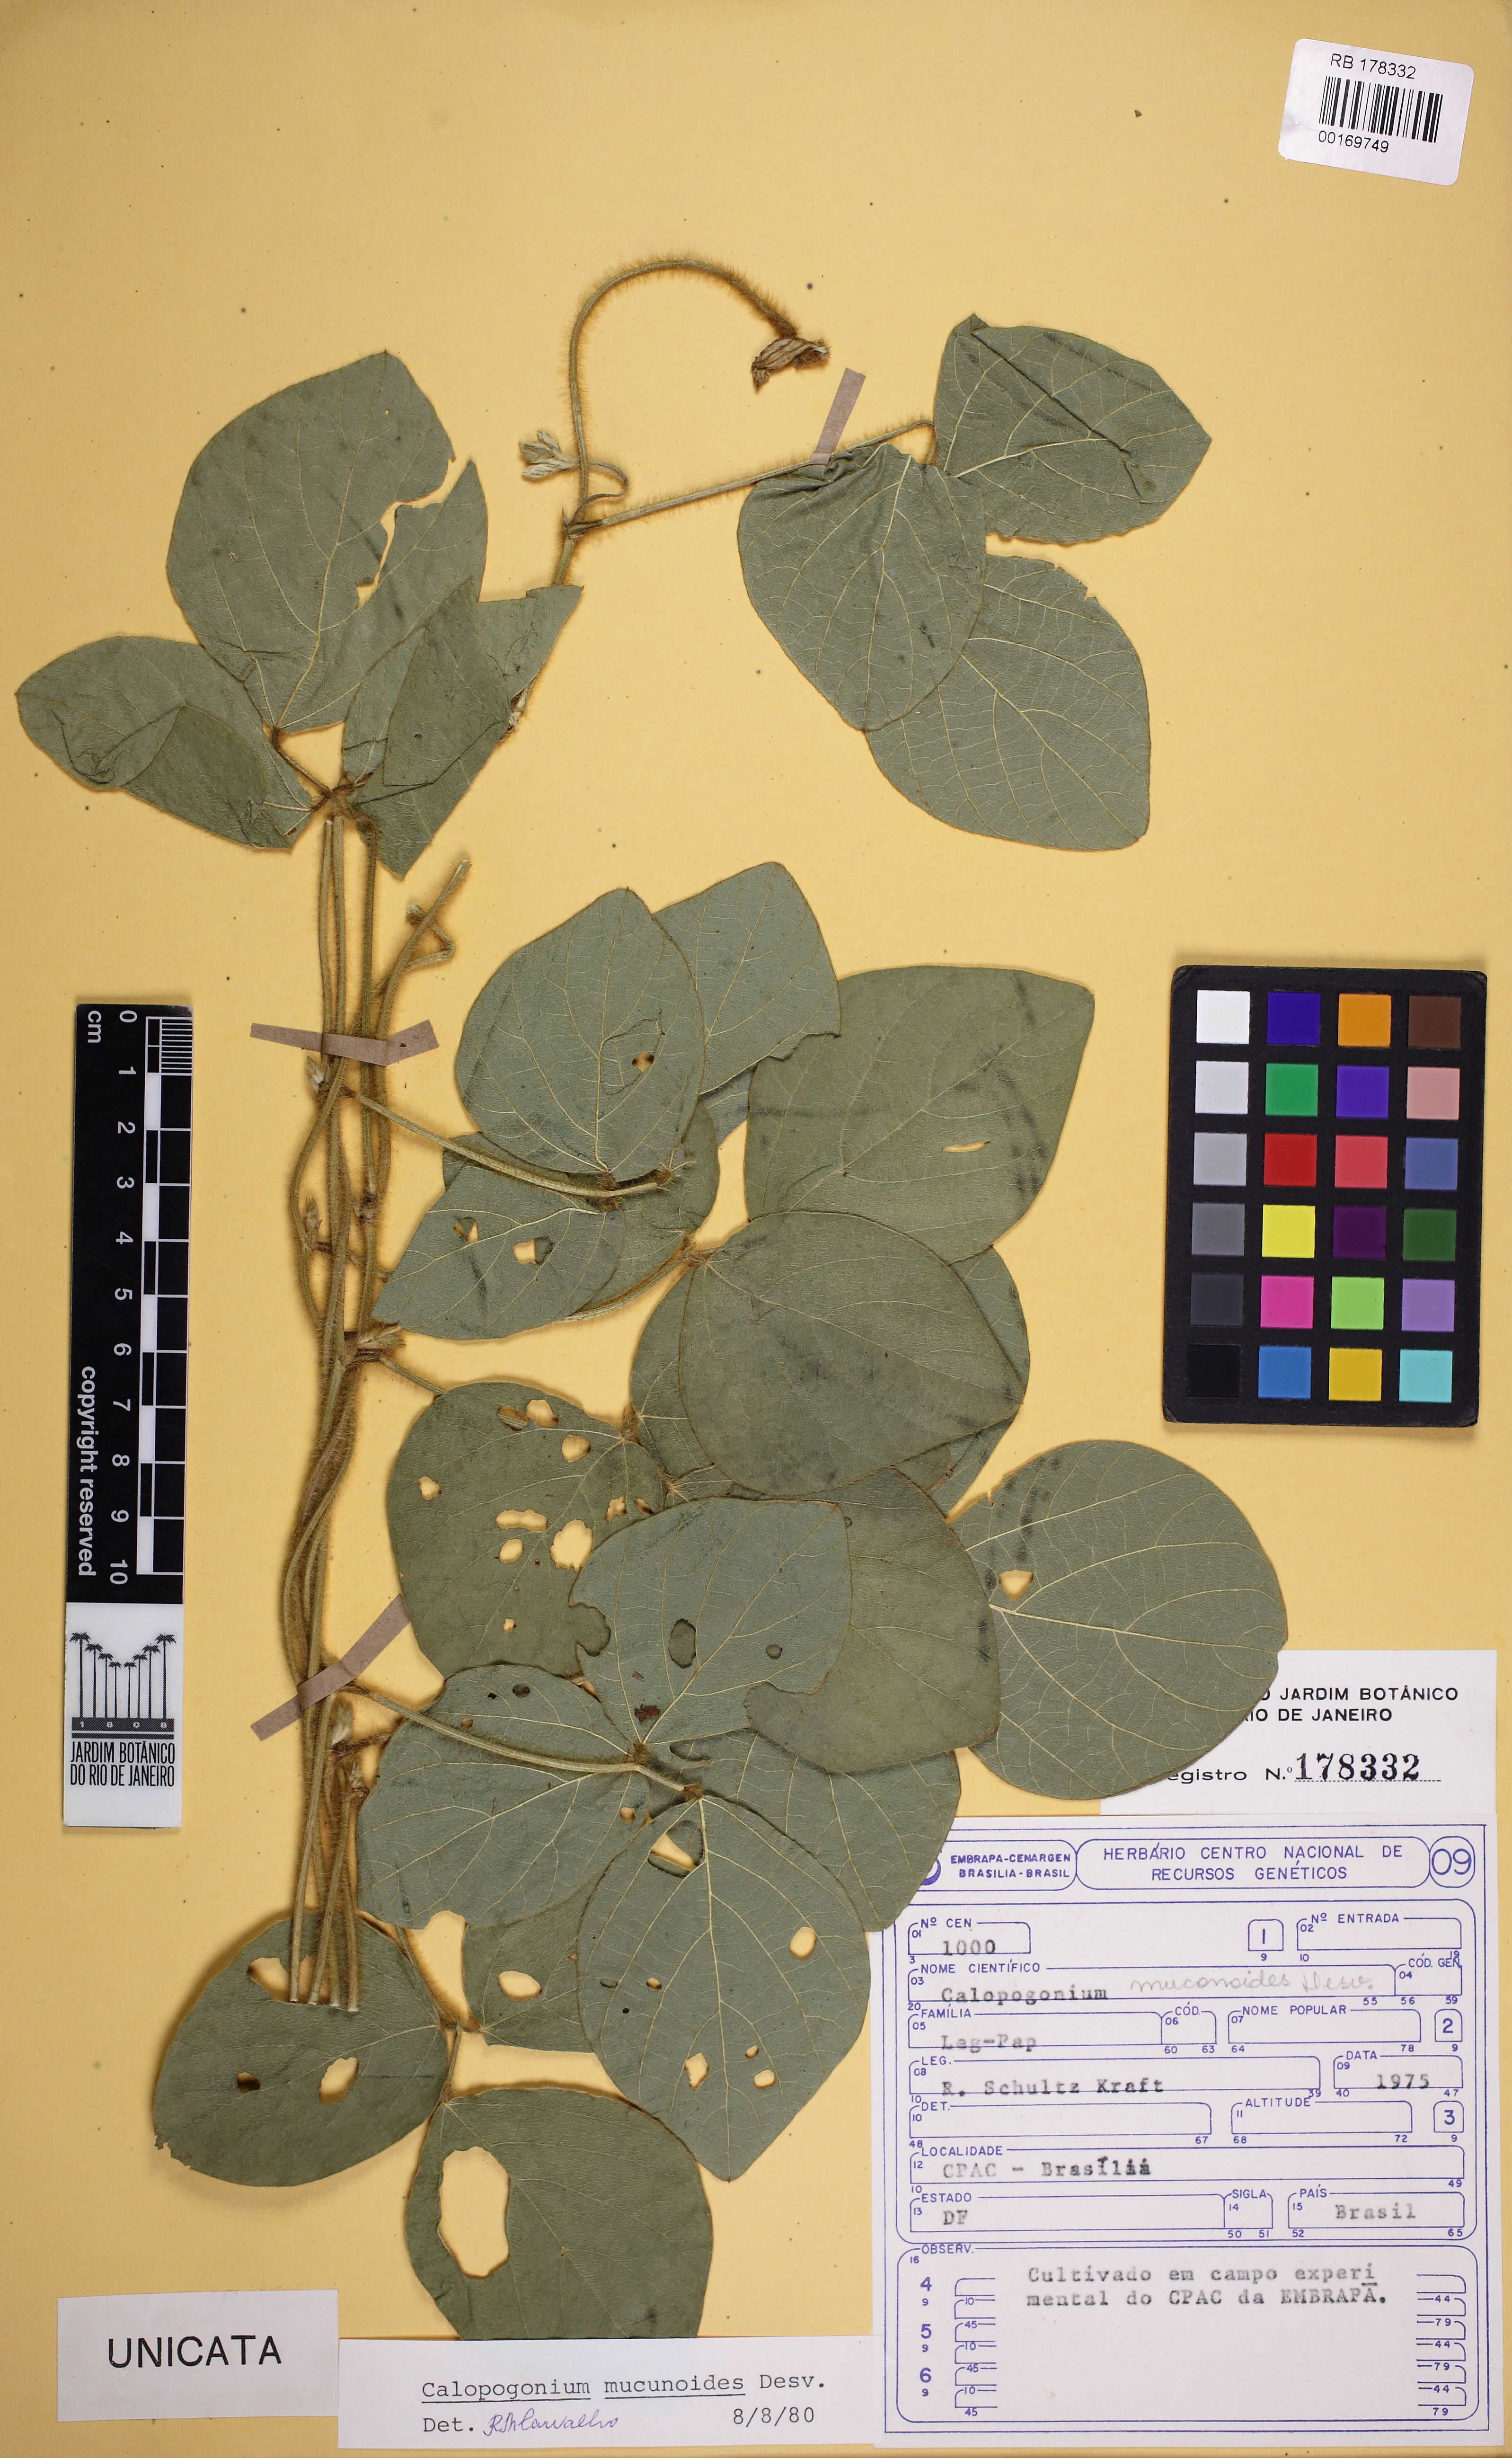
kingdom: Plantae
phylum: Tracheophyta
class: Magnoliopsida
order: Fabales
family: Fabaceae
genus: Calopogonium
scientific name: Calopogonium mucunoides
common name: Calopo
